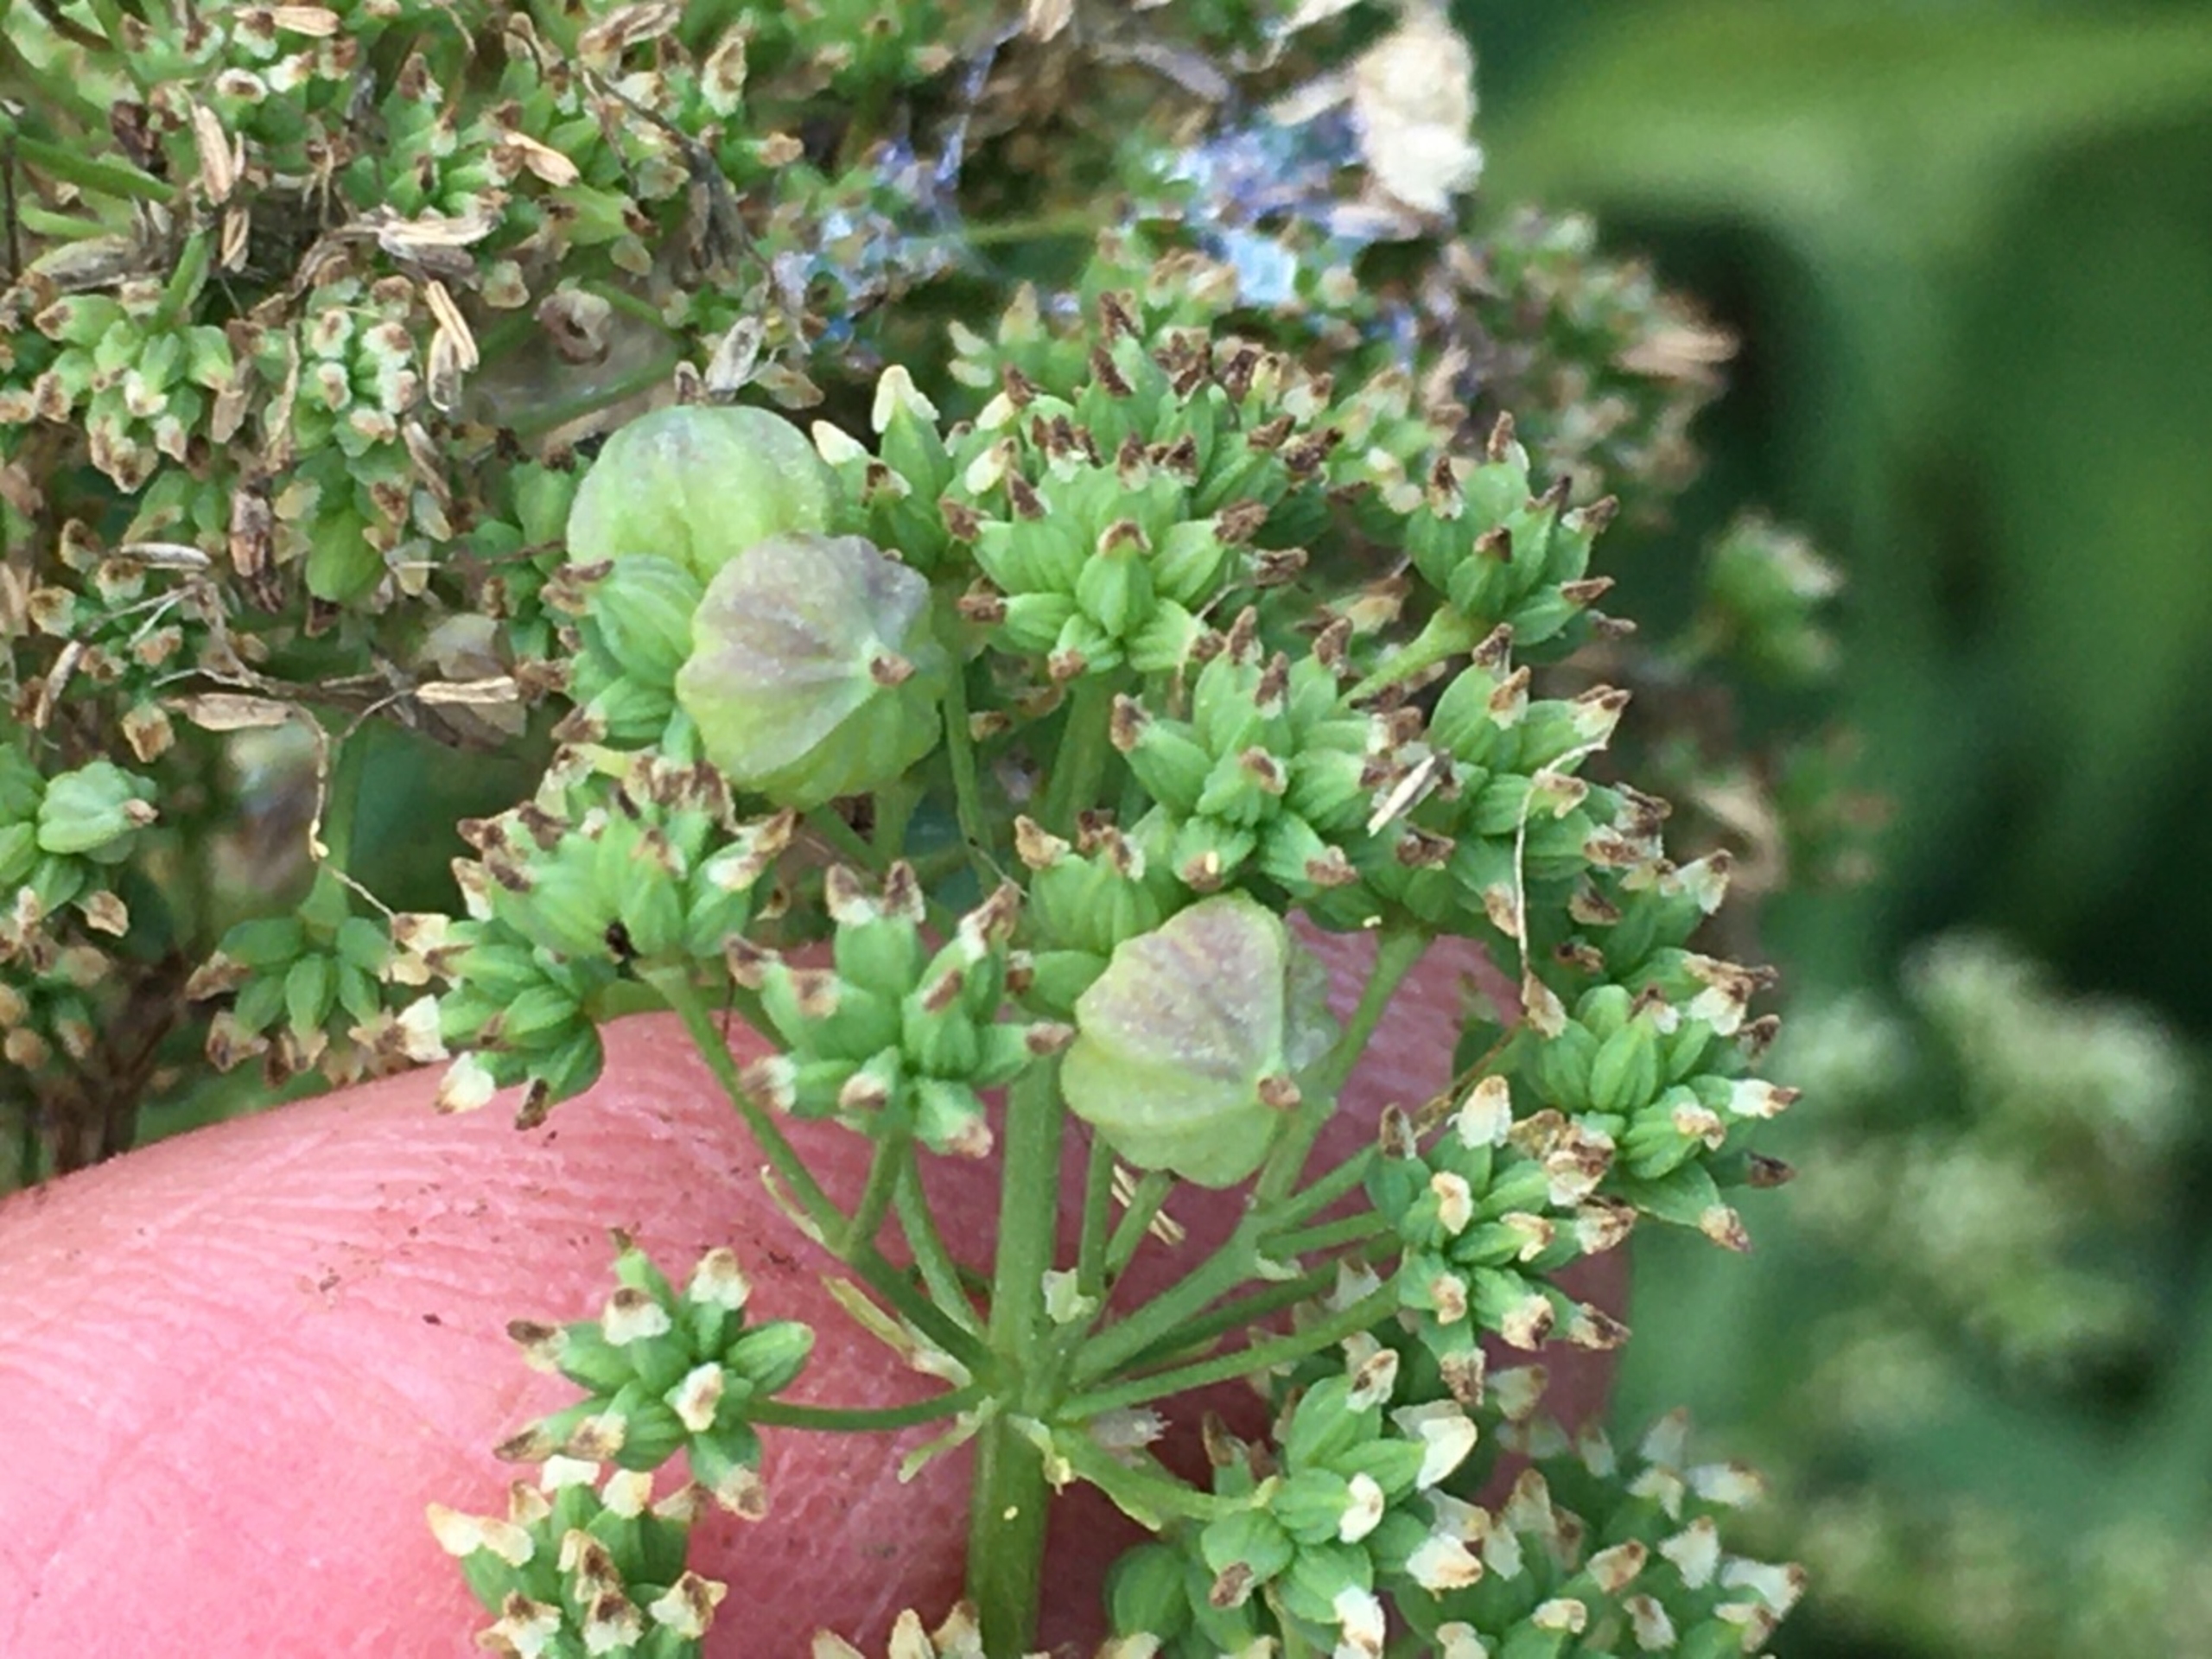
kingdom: Animalia
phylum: Arthropoda
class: Insecta
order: Diptera
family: Cecidomyiidae
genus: Ametrodiplosis
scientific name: Ametrodiplosis thalictricola
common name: Frøstjernegalmyg
